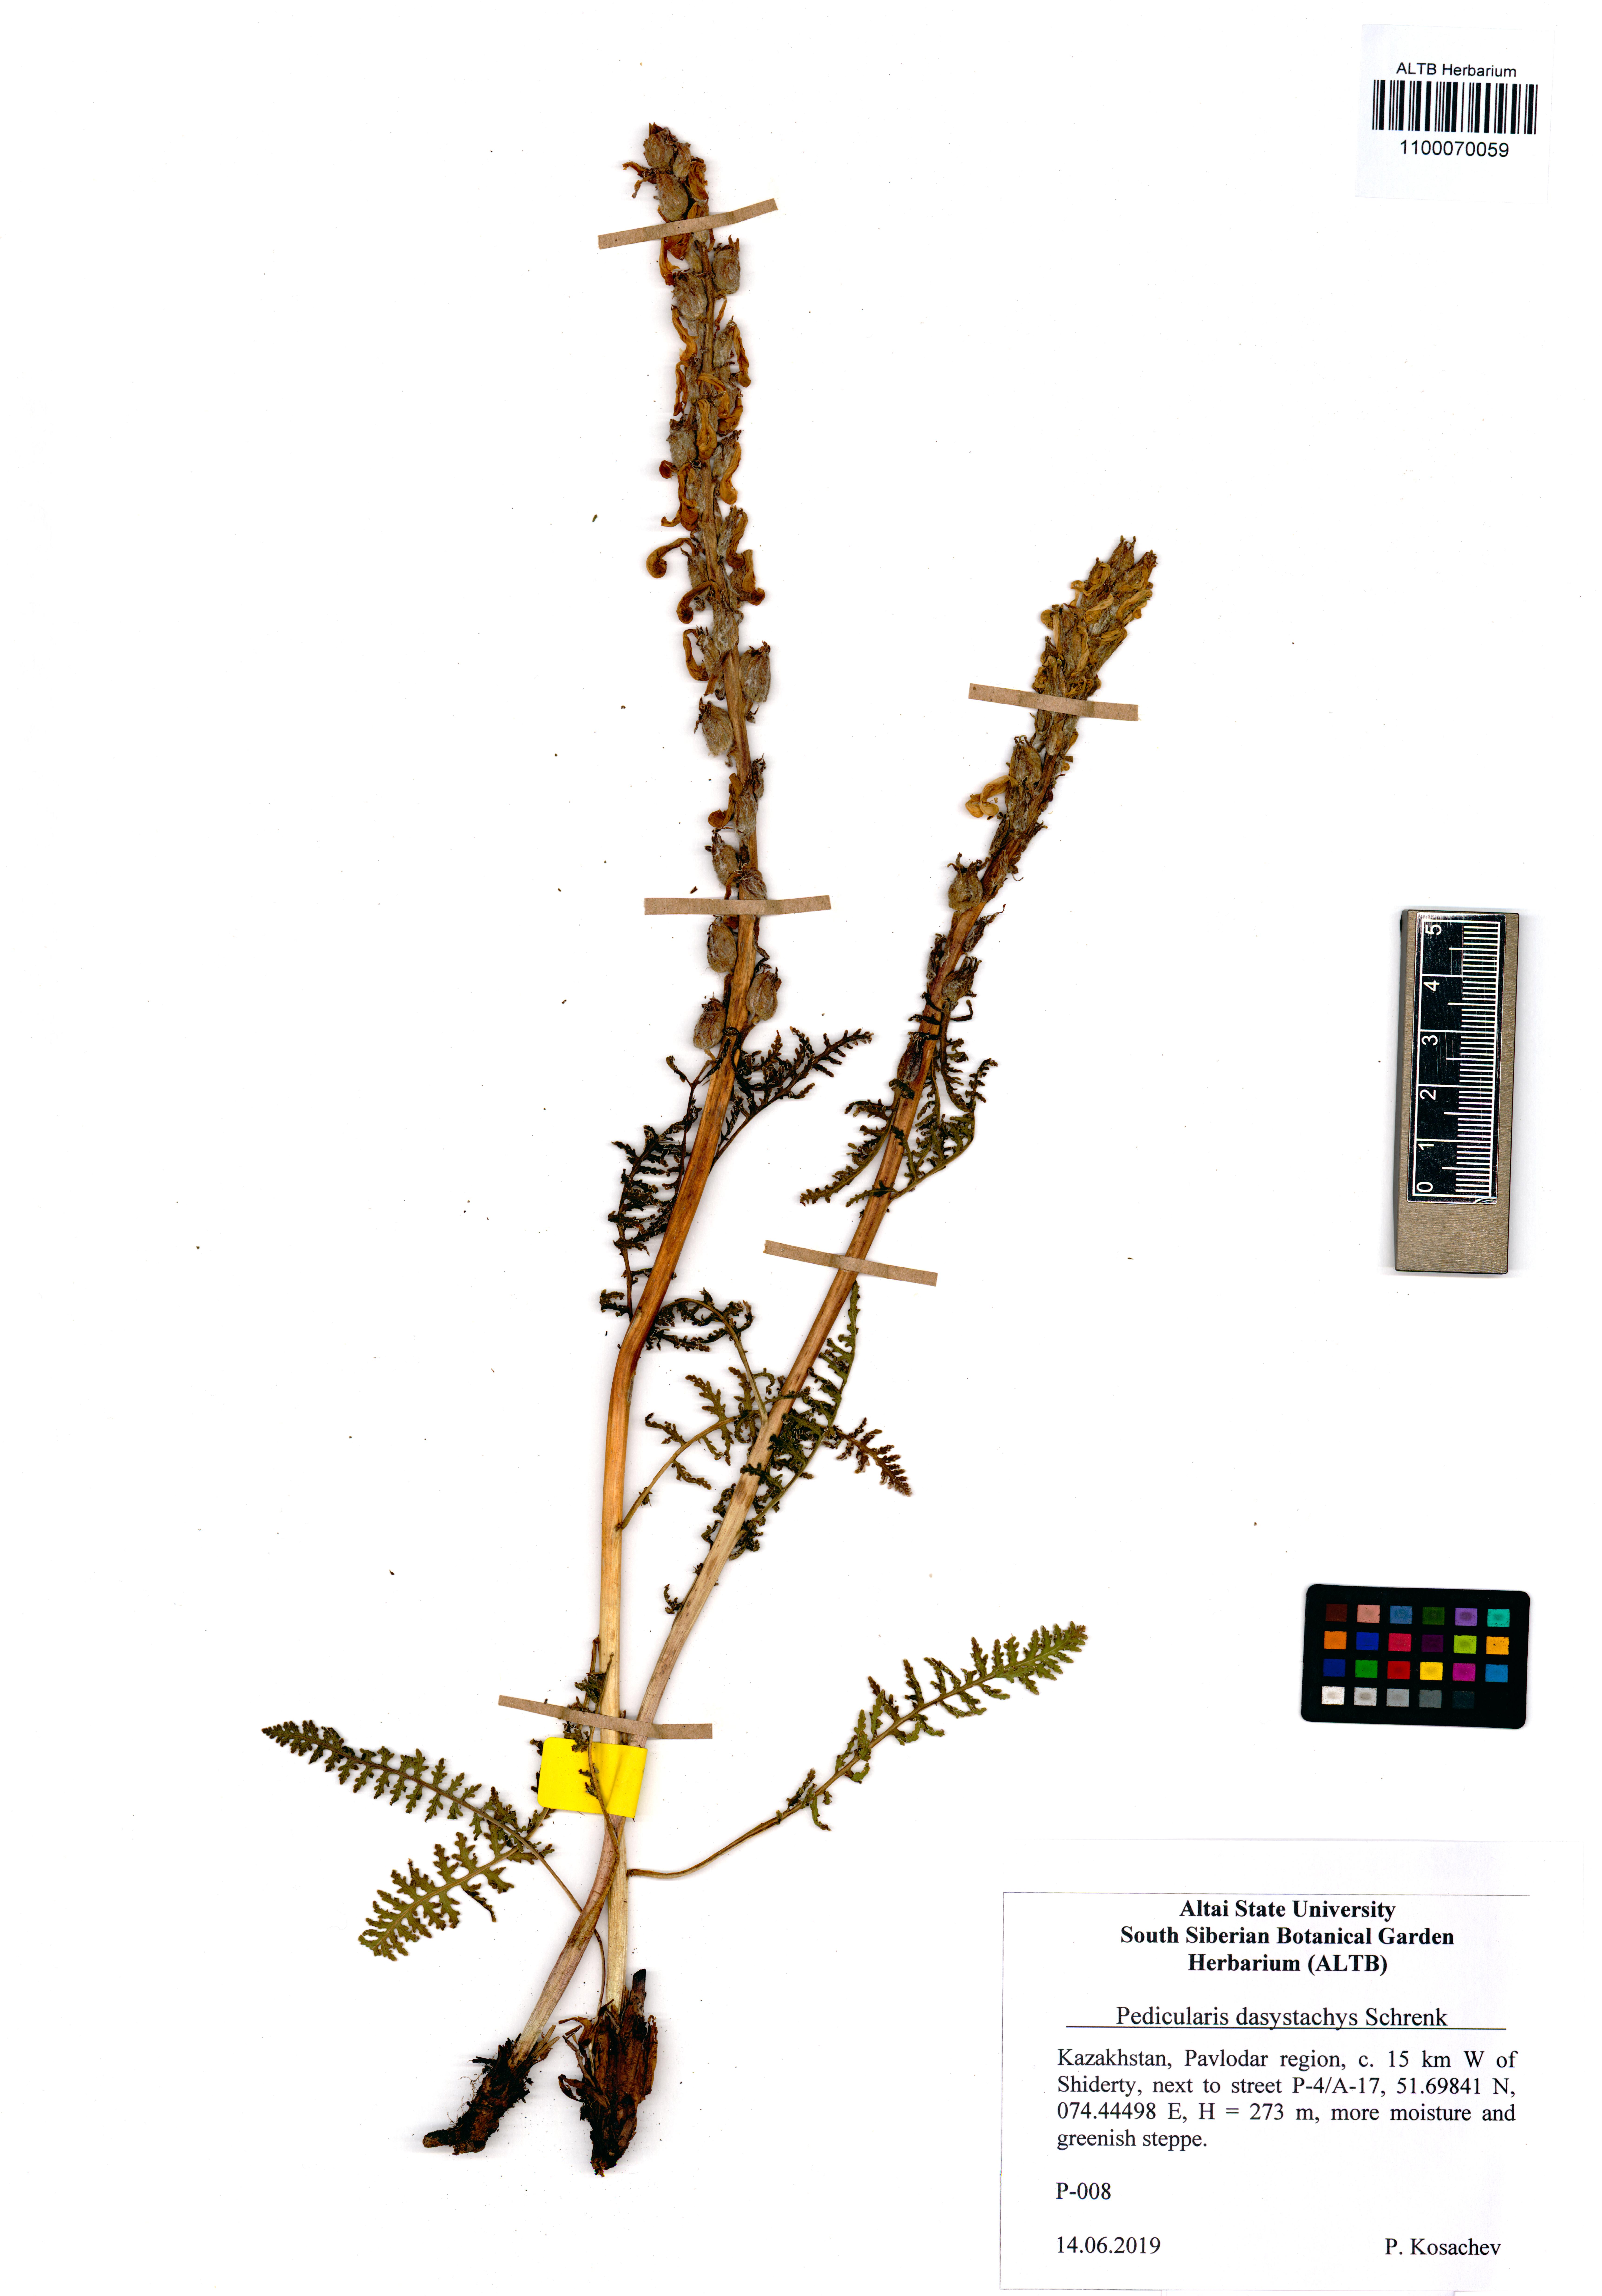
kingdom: Plantae
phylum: Tracheophyta
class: Magnoliopsida
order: Lamiales
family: Orobanchaceae
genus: Pedicularis
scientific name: Pedicularis dasystachys
